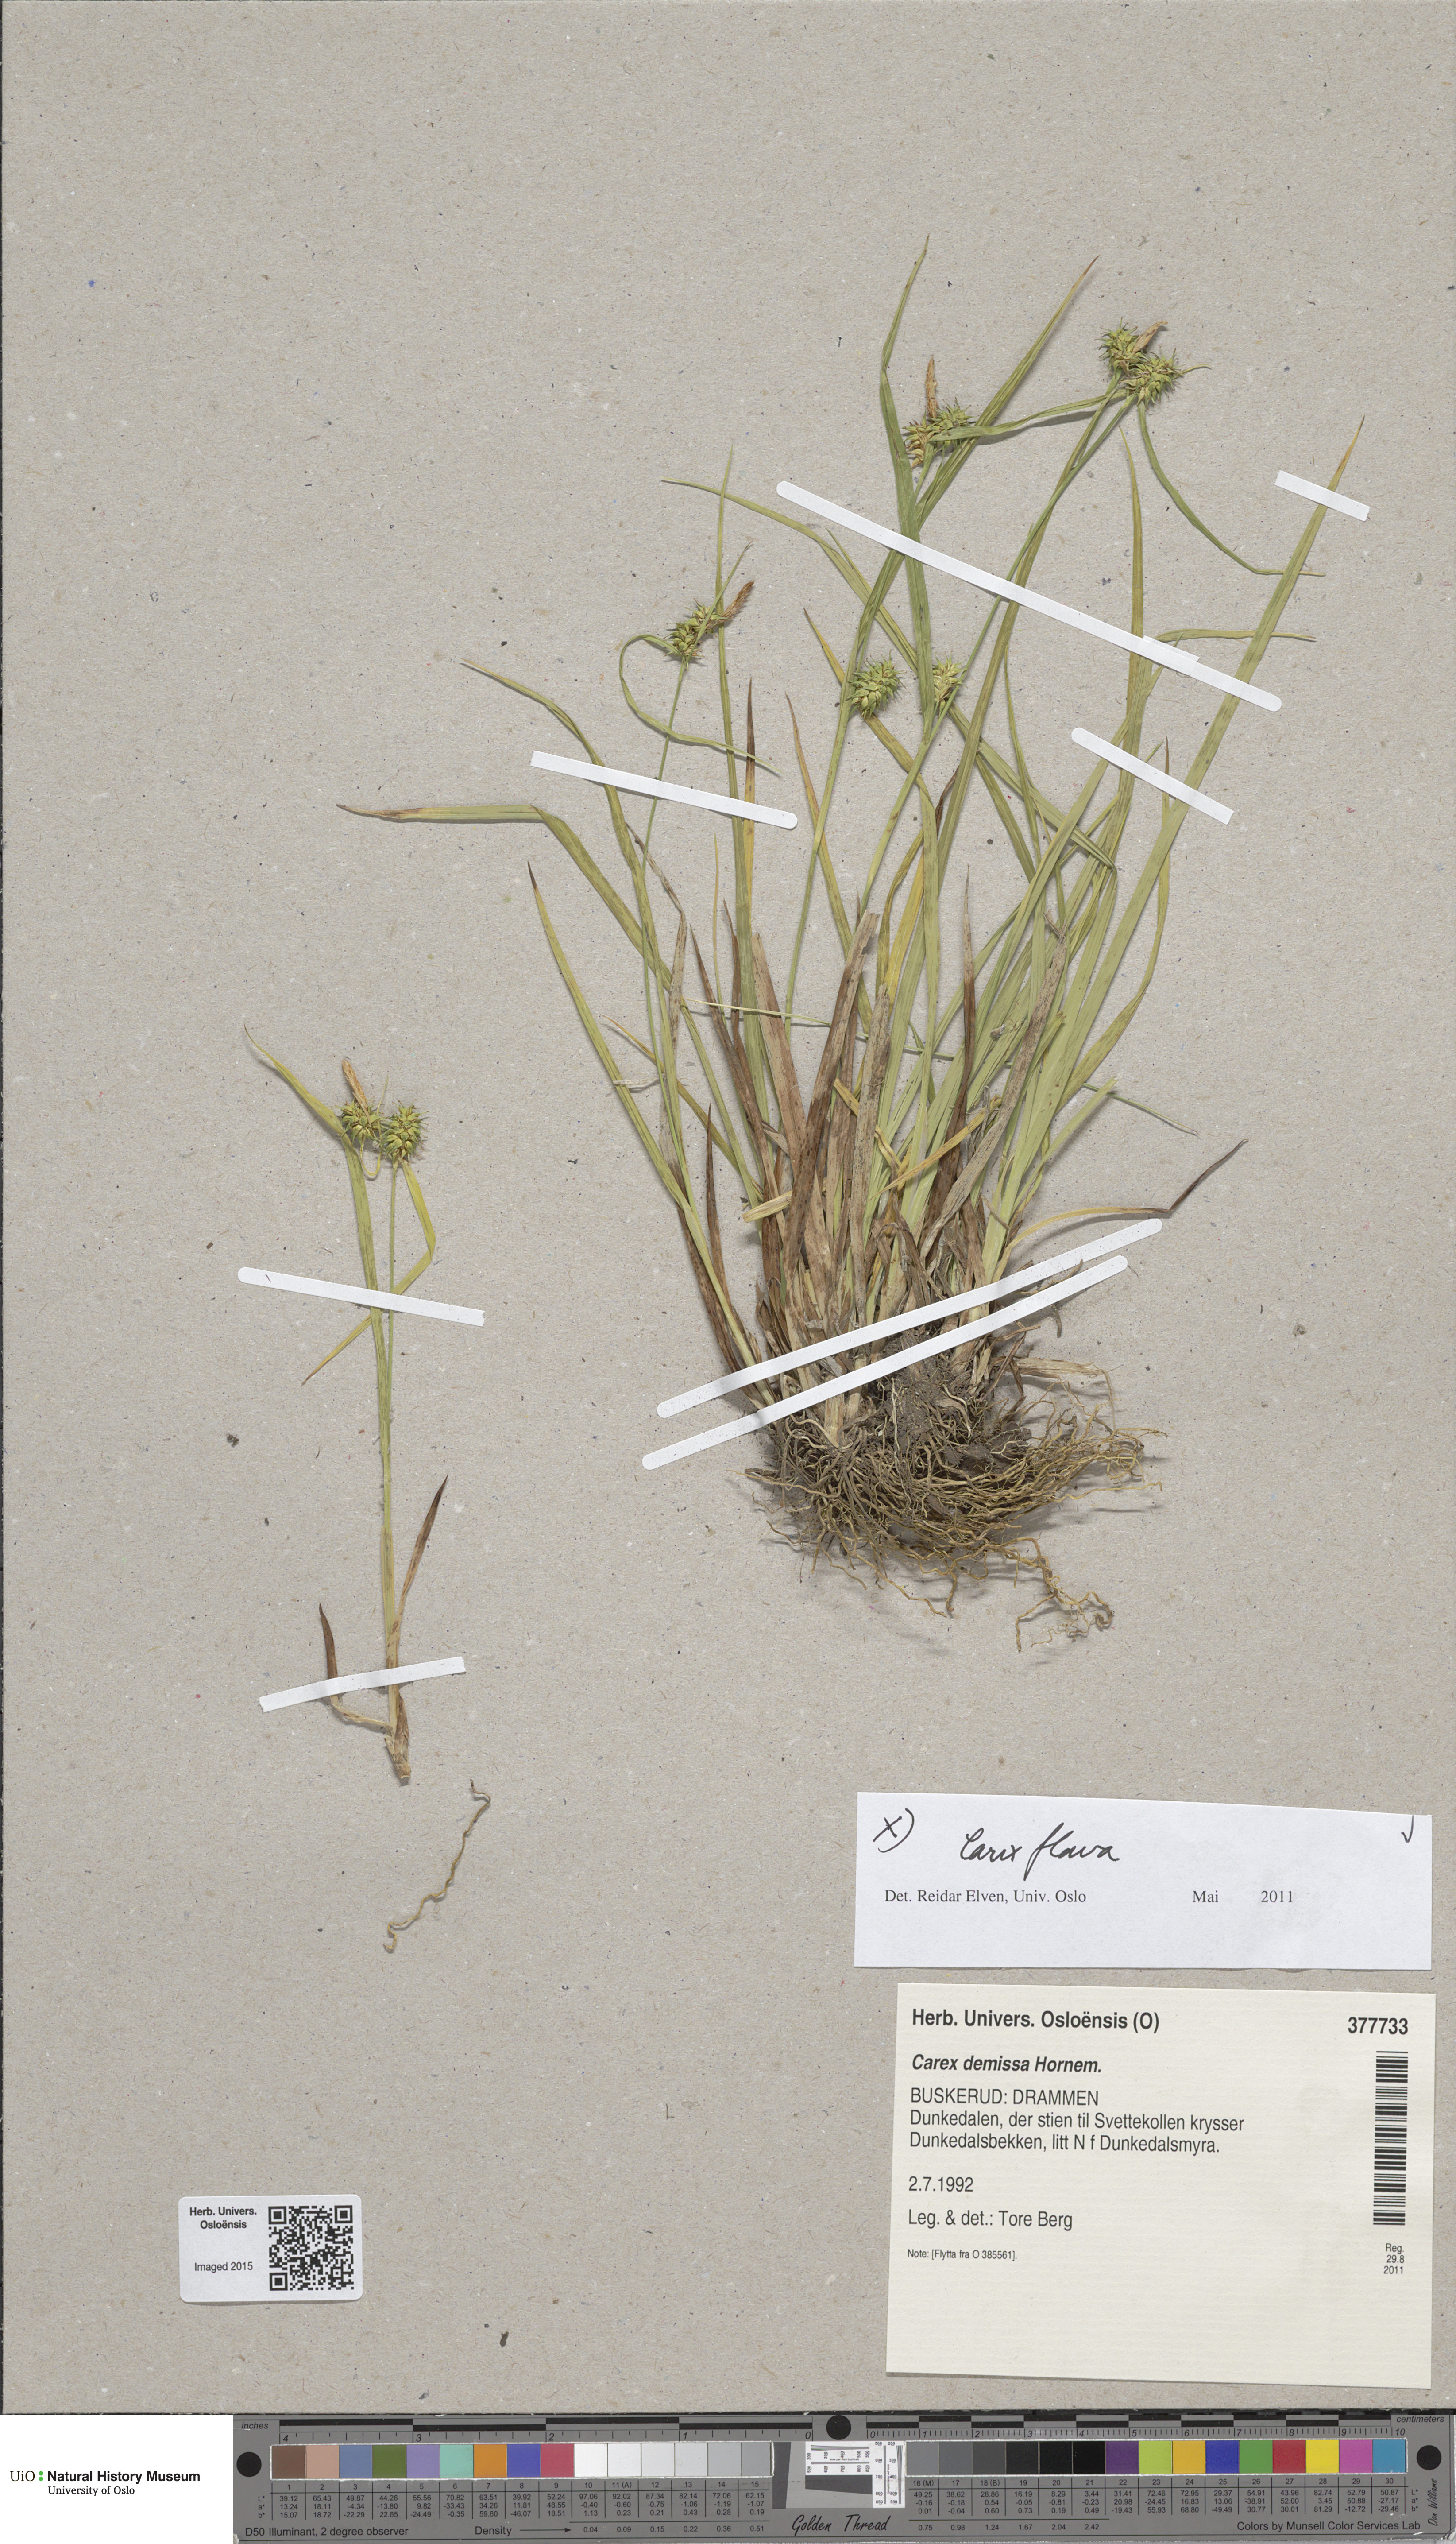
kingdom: Plantae
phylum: Tracheophyta
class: Liliopsida
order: Poales
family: Cyperaceae
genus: Carex
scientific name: Carex flava
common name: Large yellow-sedge
